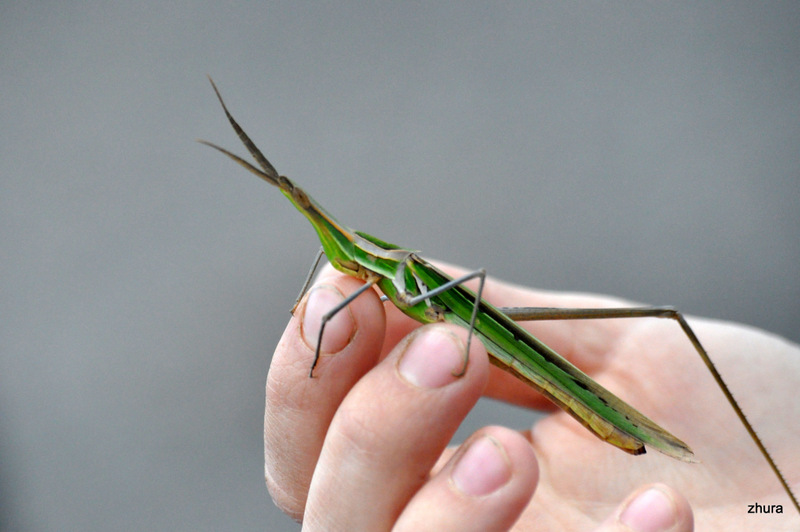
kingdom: Animalia
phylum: Arthropoda
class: Insecta
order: Orthoptera
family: Acrididae
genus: Acrida
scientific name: Acrida bicolor
